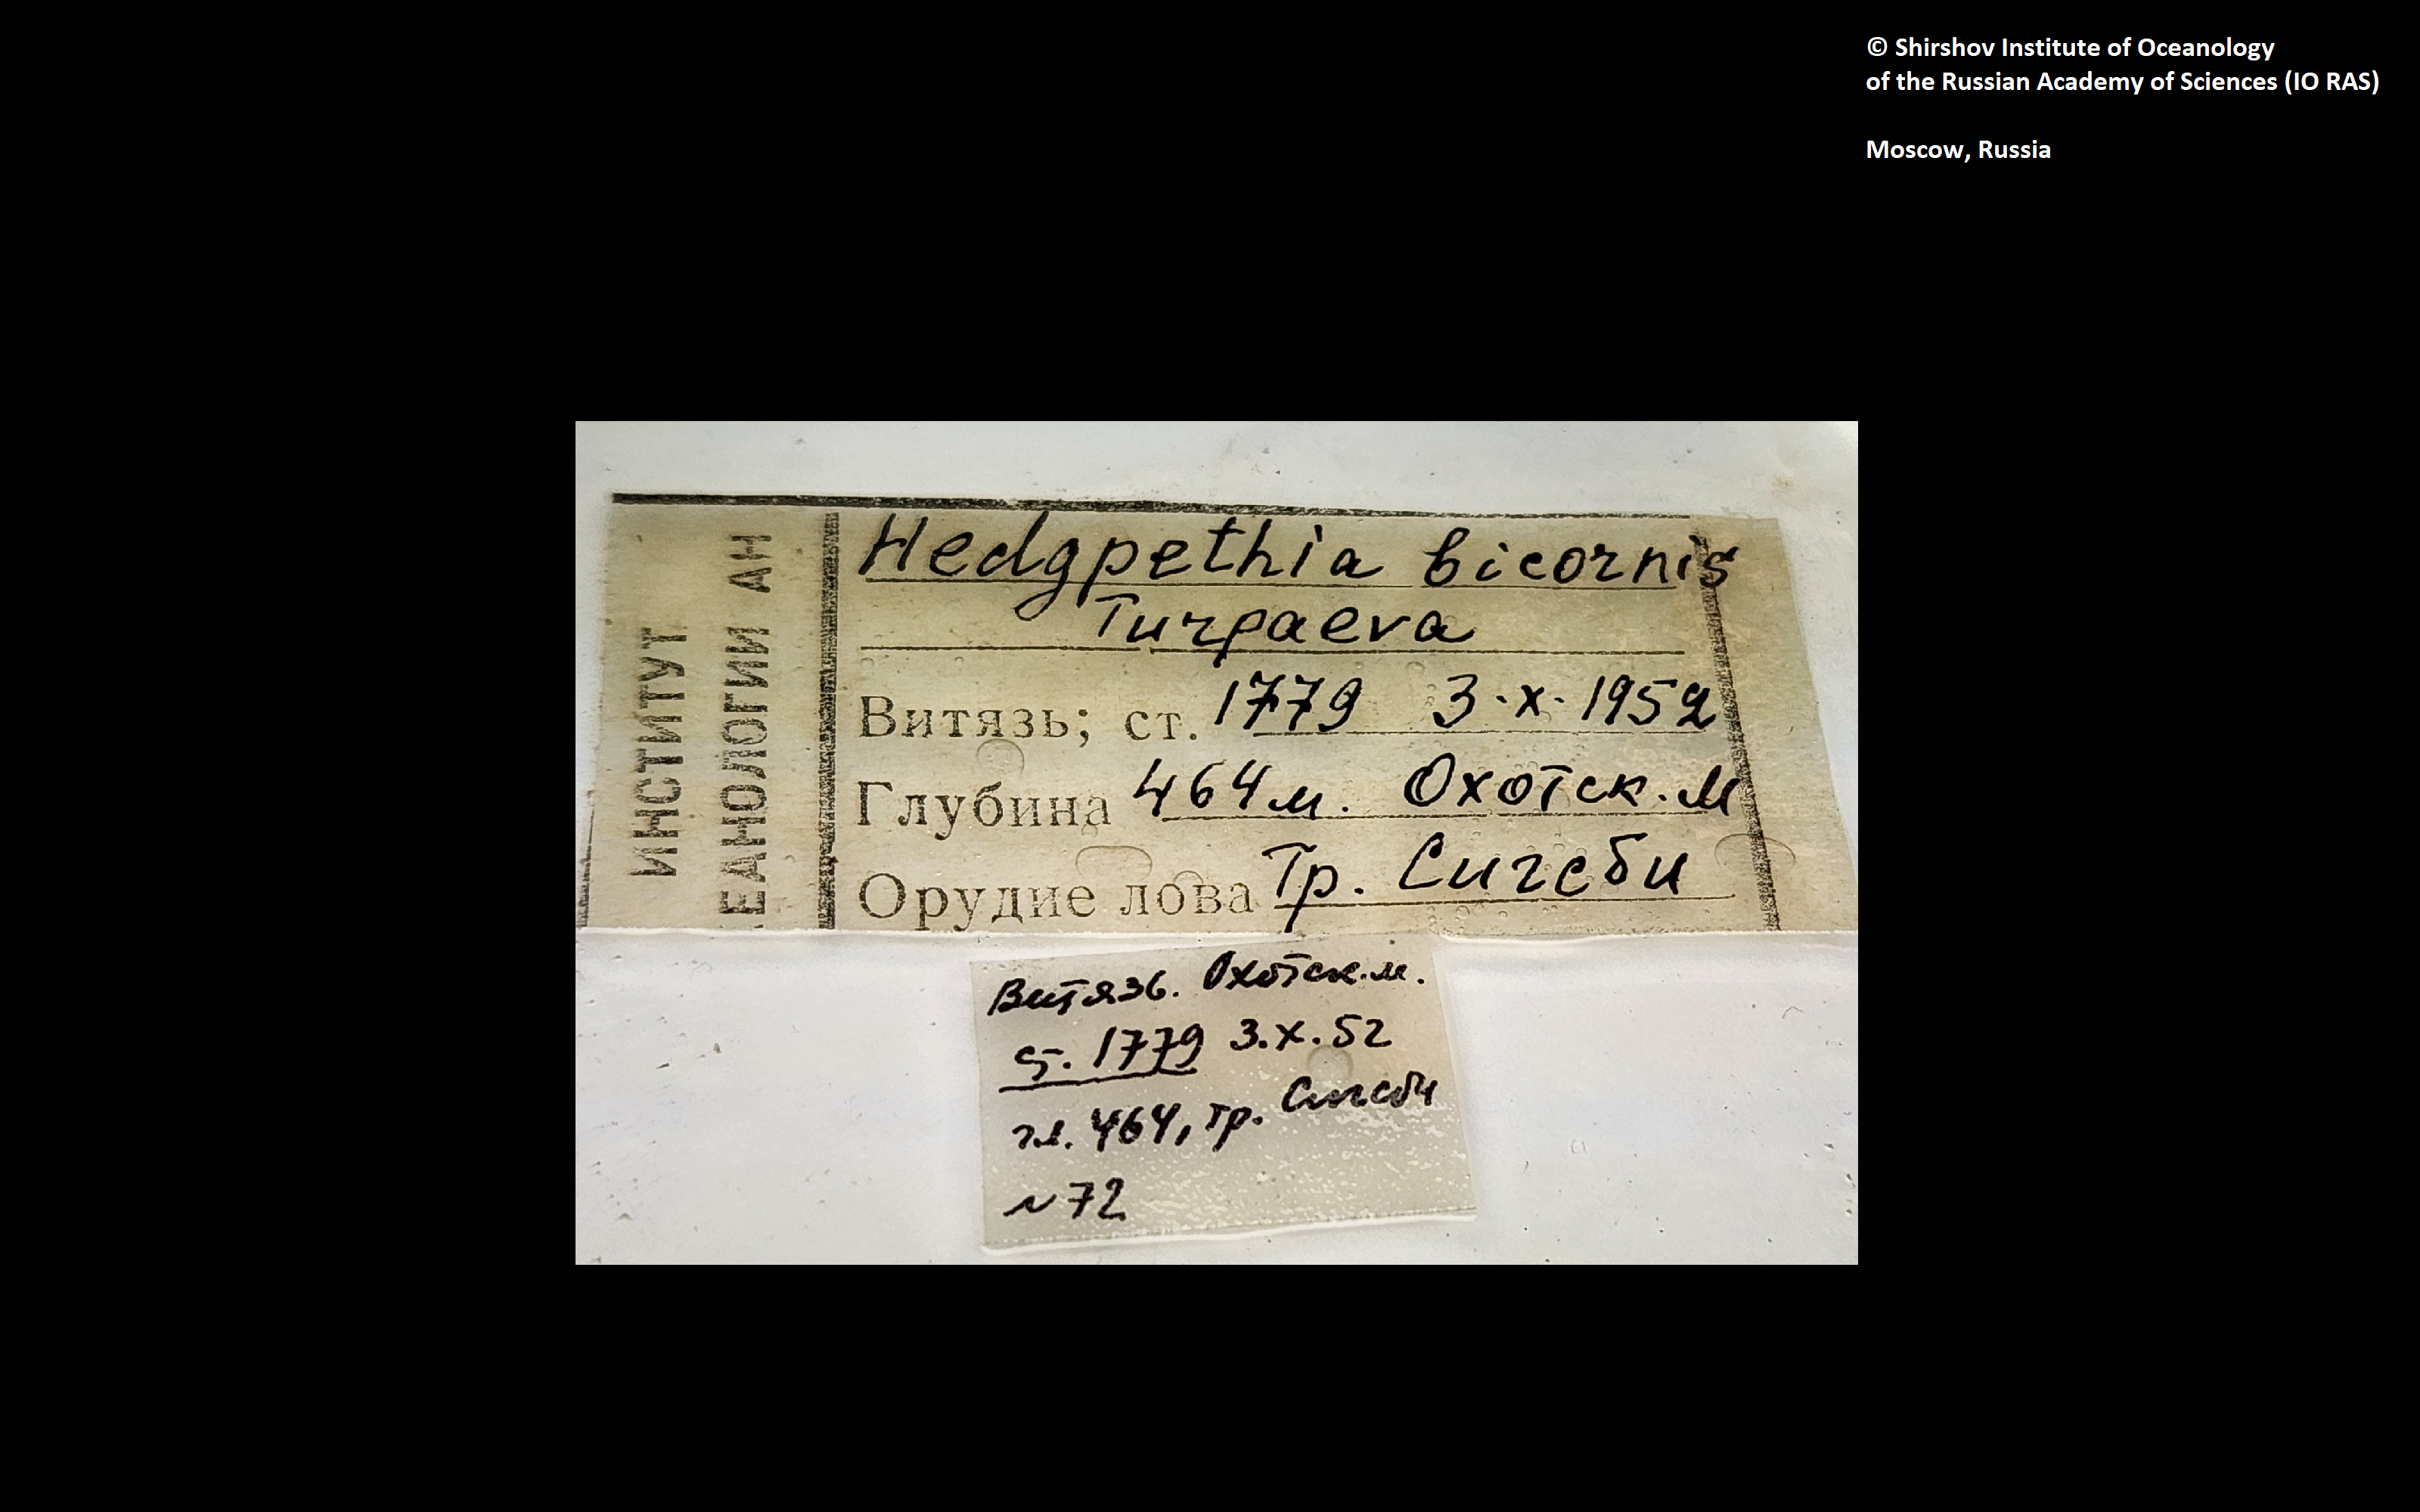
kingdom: Animalia
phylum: Arthropoda
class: Pycnogonida
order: Pantopoda
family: Colossendeidae
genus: Hedgpethia
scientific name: Hedgpethia californica
